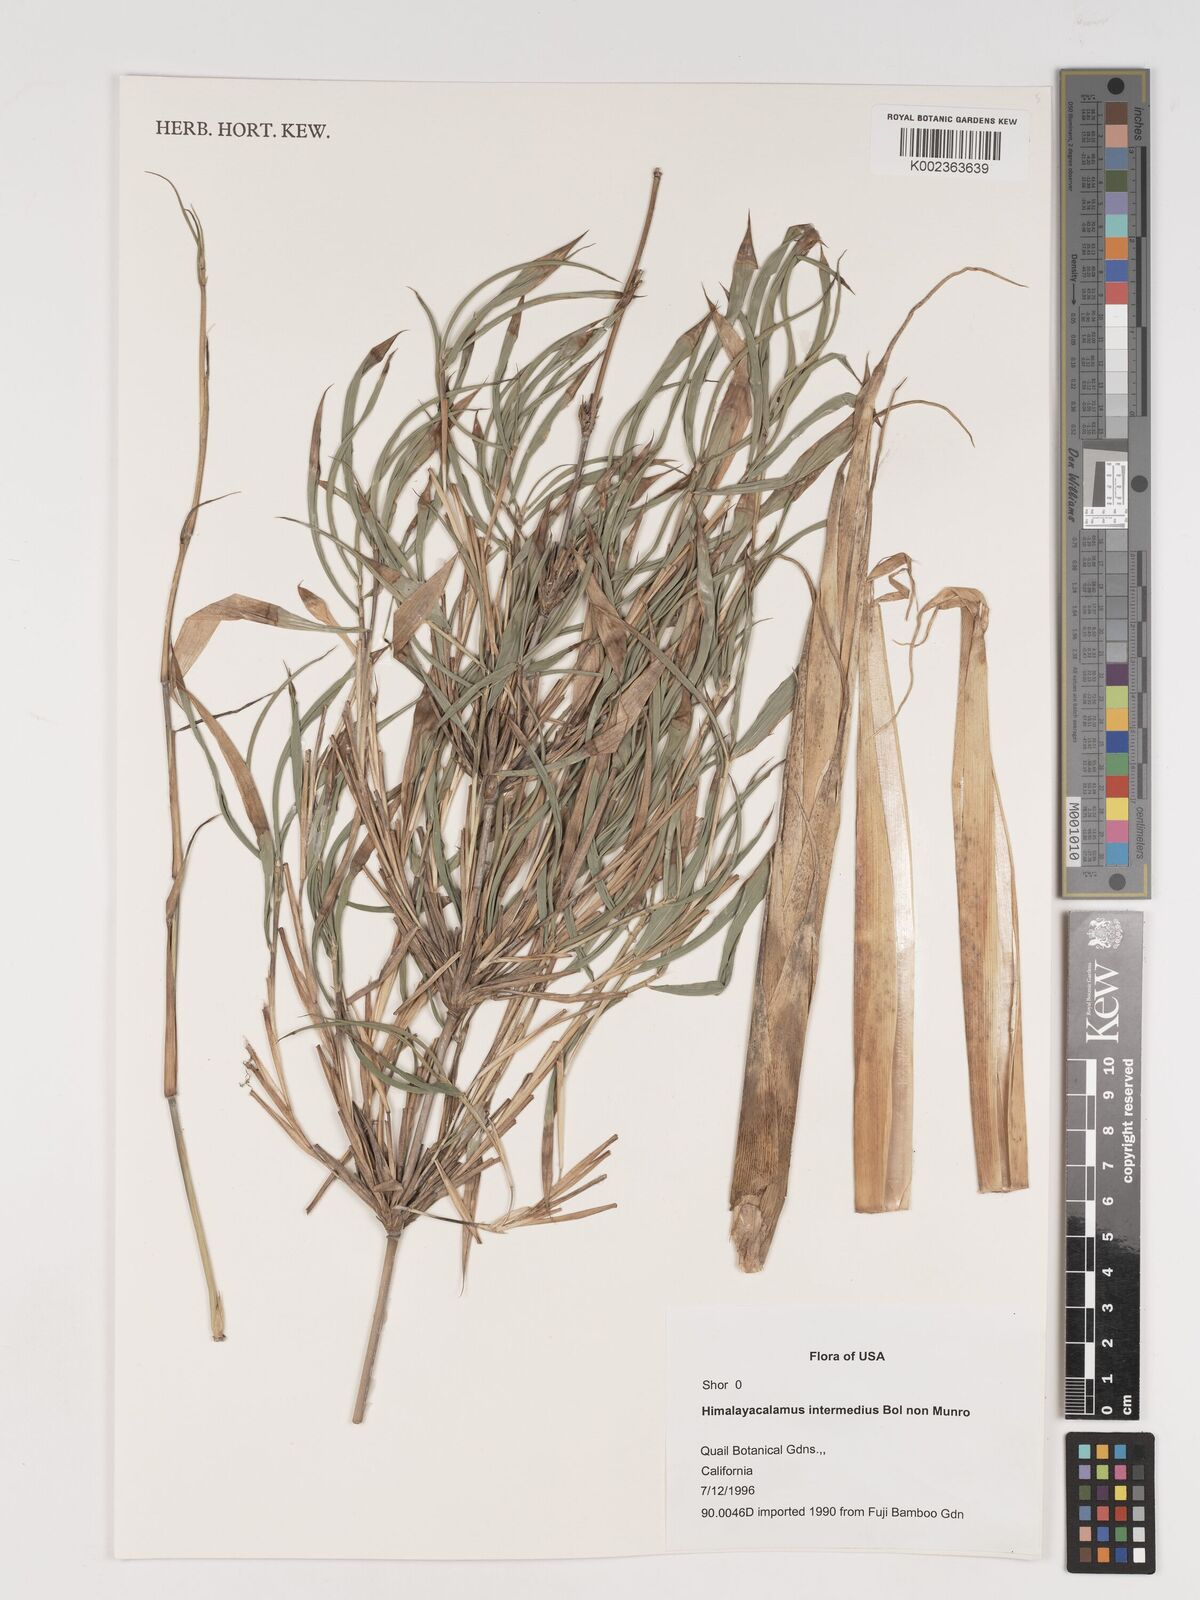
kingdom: Plantae
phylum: Tracheophyta
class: Liliopsida
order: Poales
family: Poaceae
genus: Himalayacalamus
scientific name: Himalayacalamus
